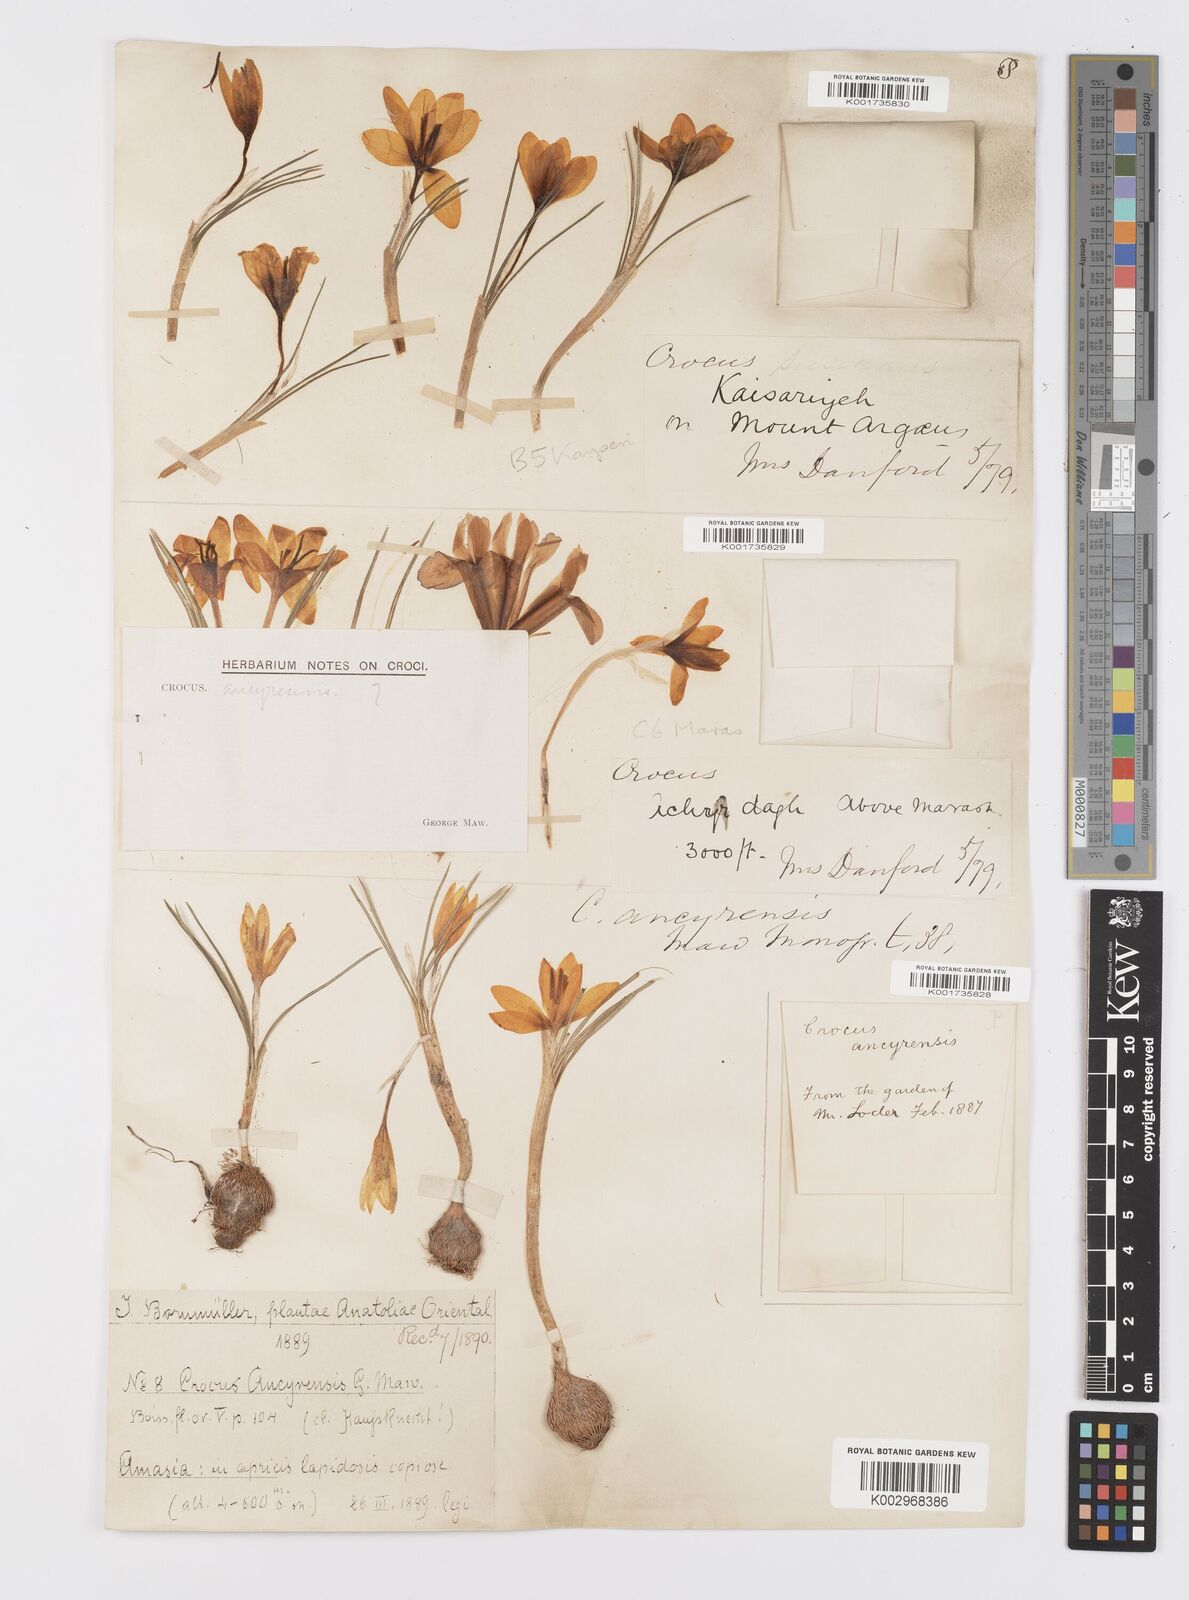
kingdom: Plantae
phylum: Tracheophyta
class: Liliopsida
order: Asparagales
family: Iridaceae
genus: Crocus
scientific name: Crocus ancyrensis
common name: Ankara crocus
